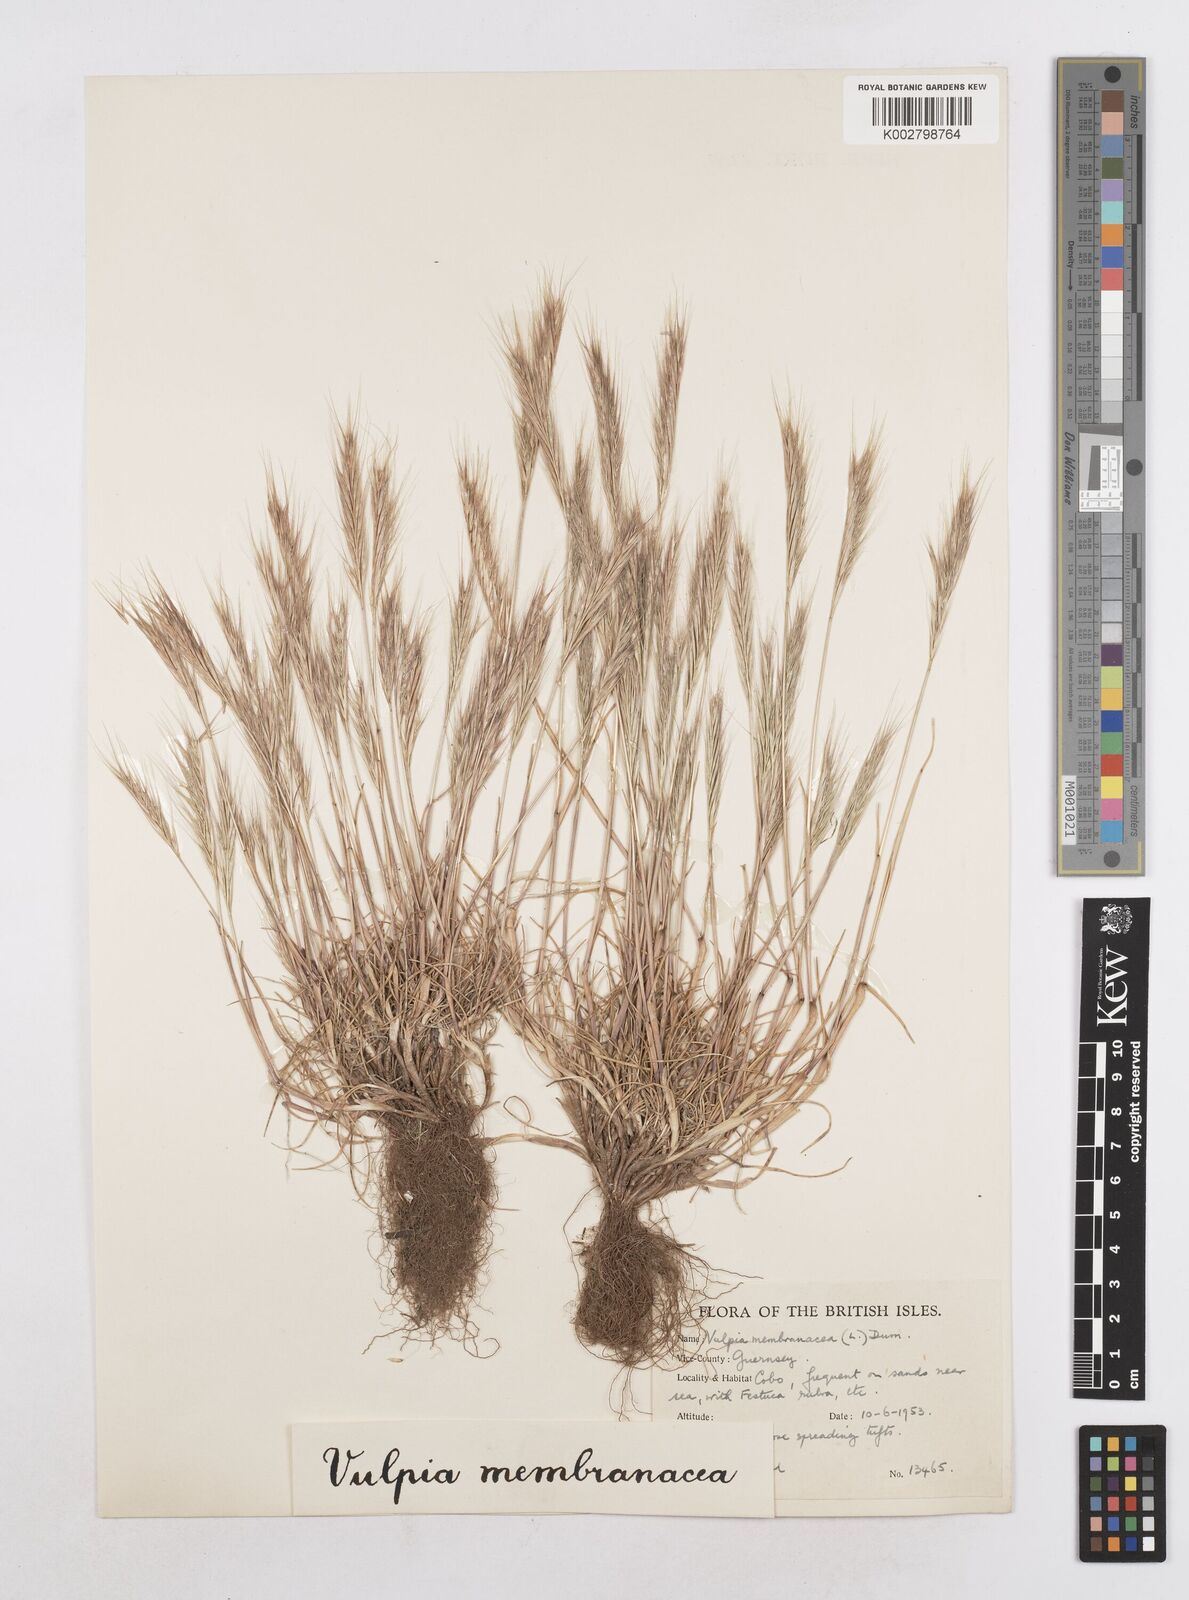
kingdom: Plantae
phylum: Tracheophyta
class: Liliopsida
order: Poales
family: Poaceae
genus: Festuca
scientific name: Festuca fasciculata
